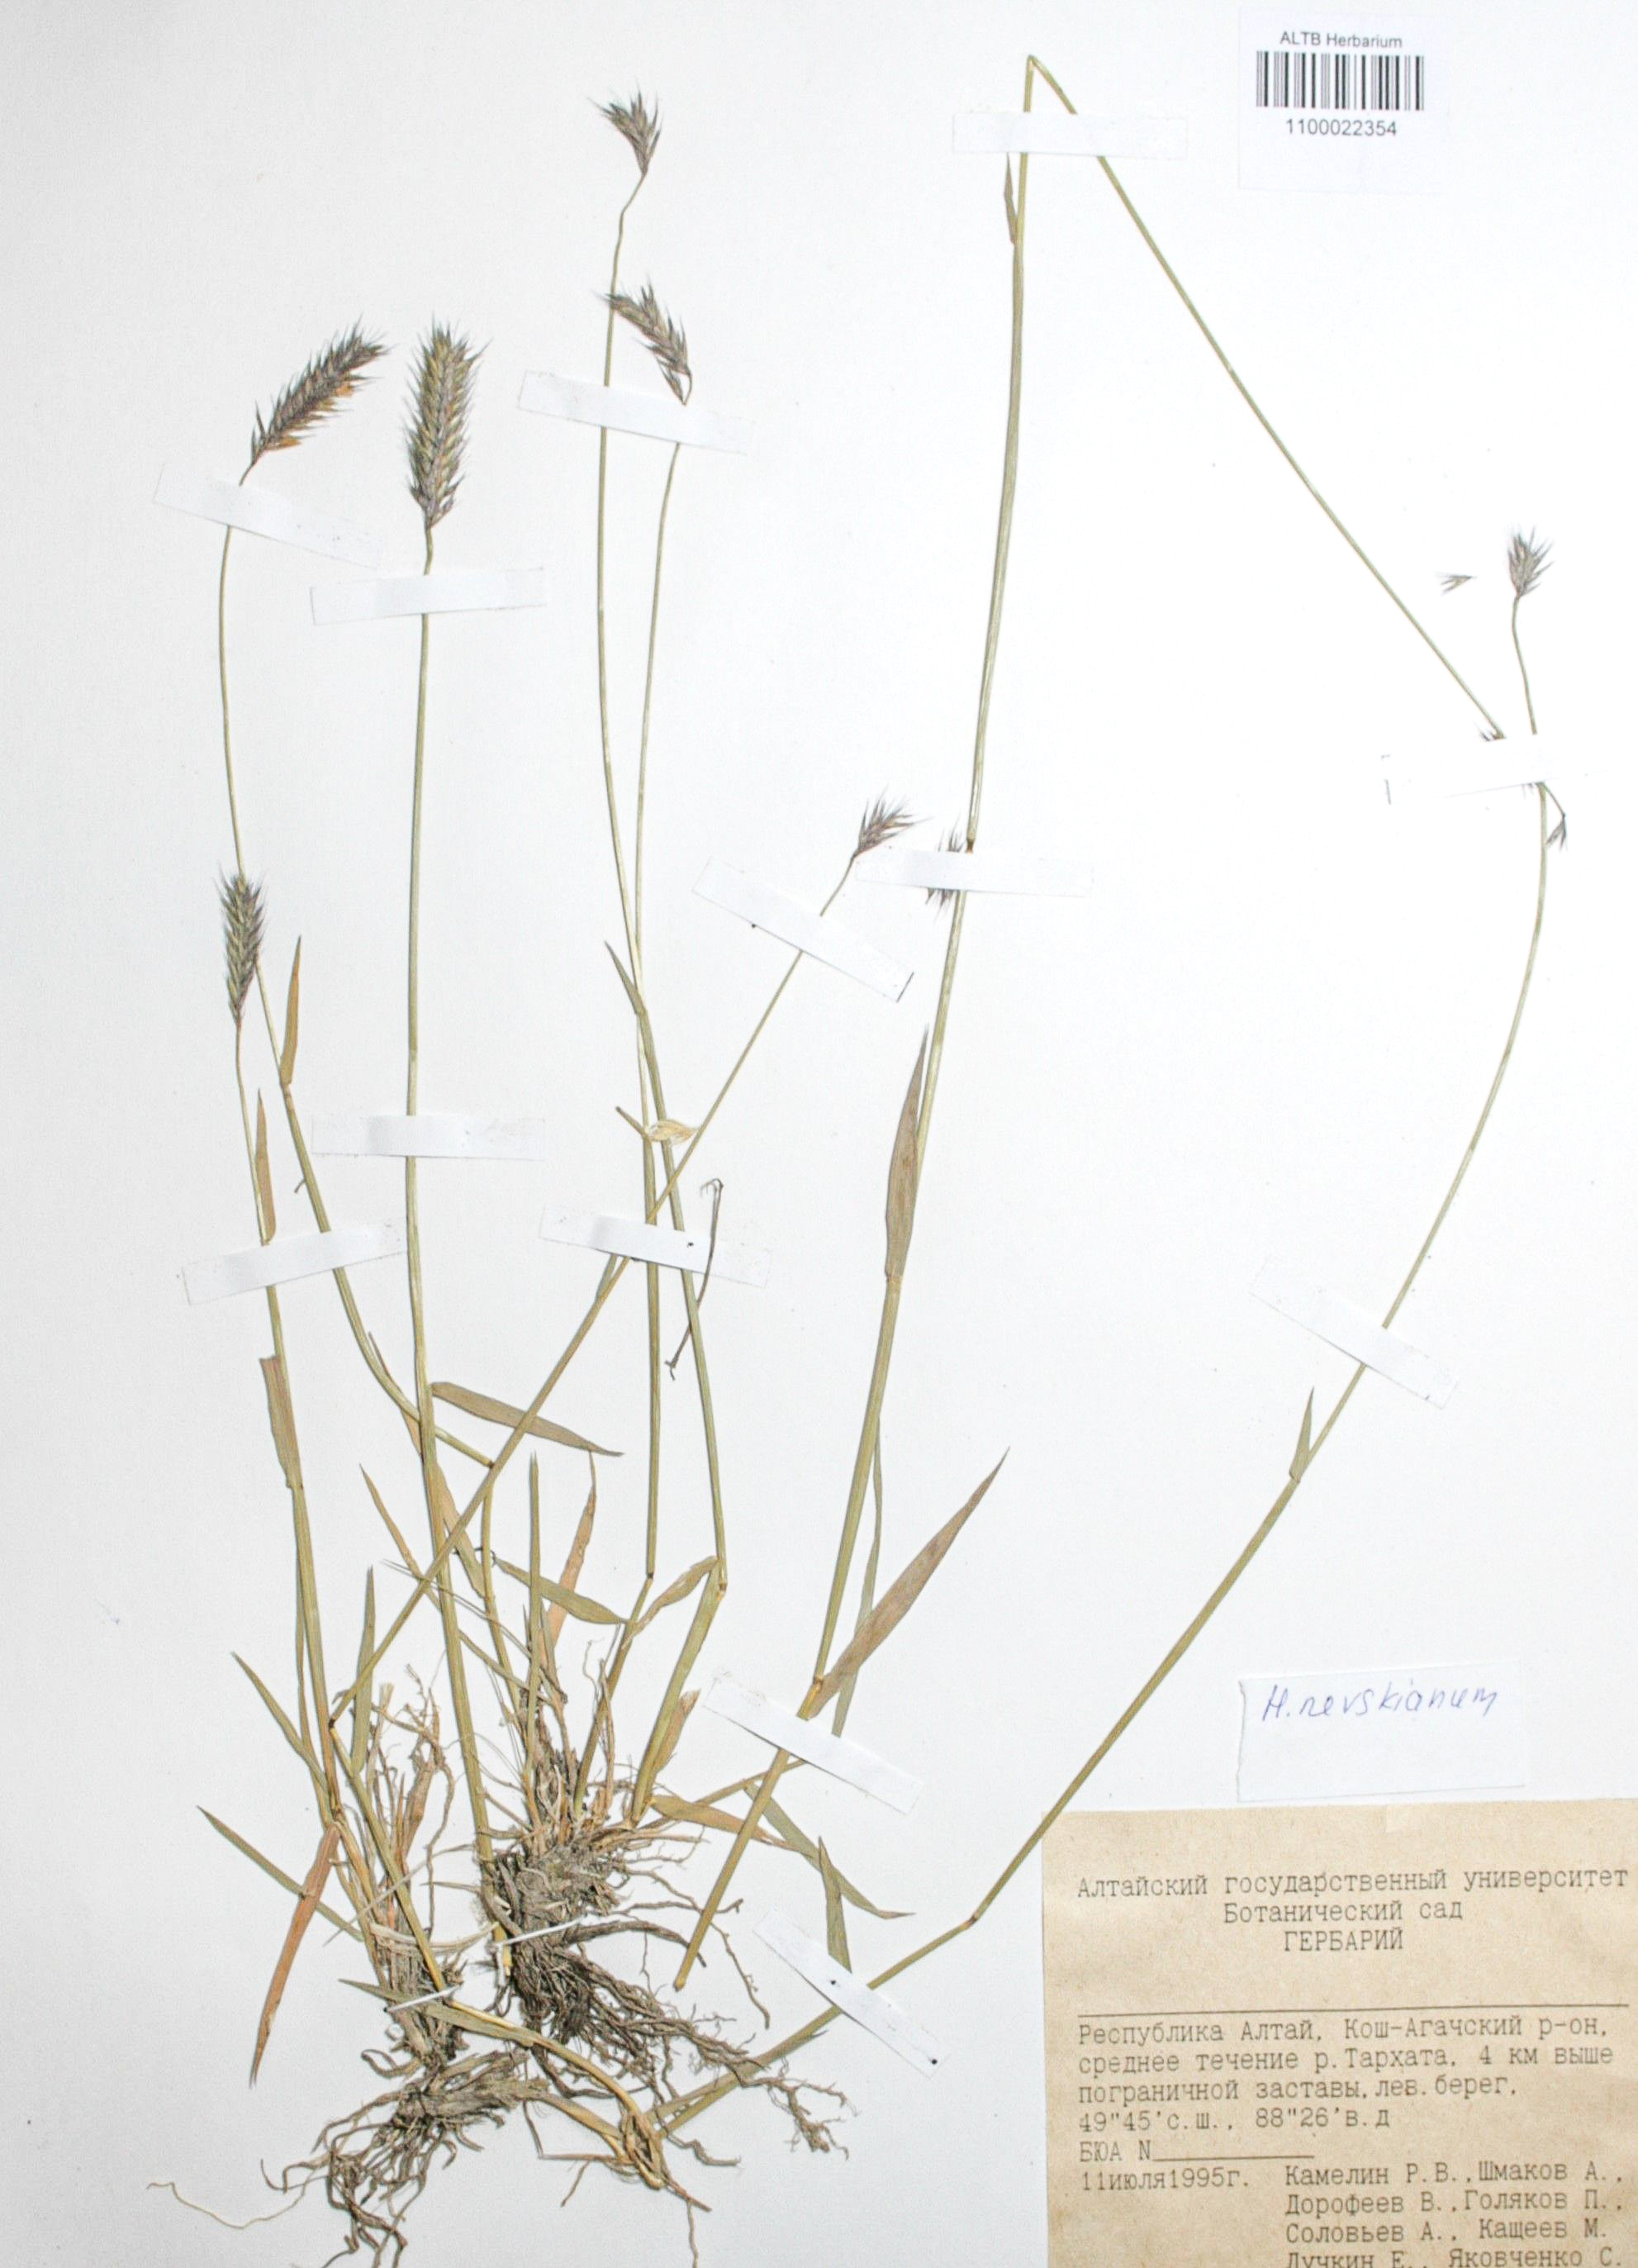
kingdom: Plantae
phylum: Tracheophyta
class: Liliopsida
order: Poales
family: Poaceae
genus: Hordeum
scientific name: Hordeum brevisubulatum
